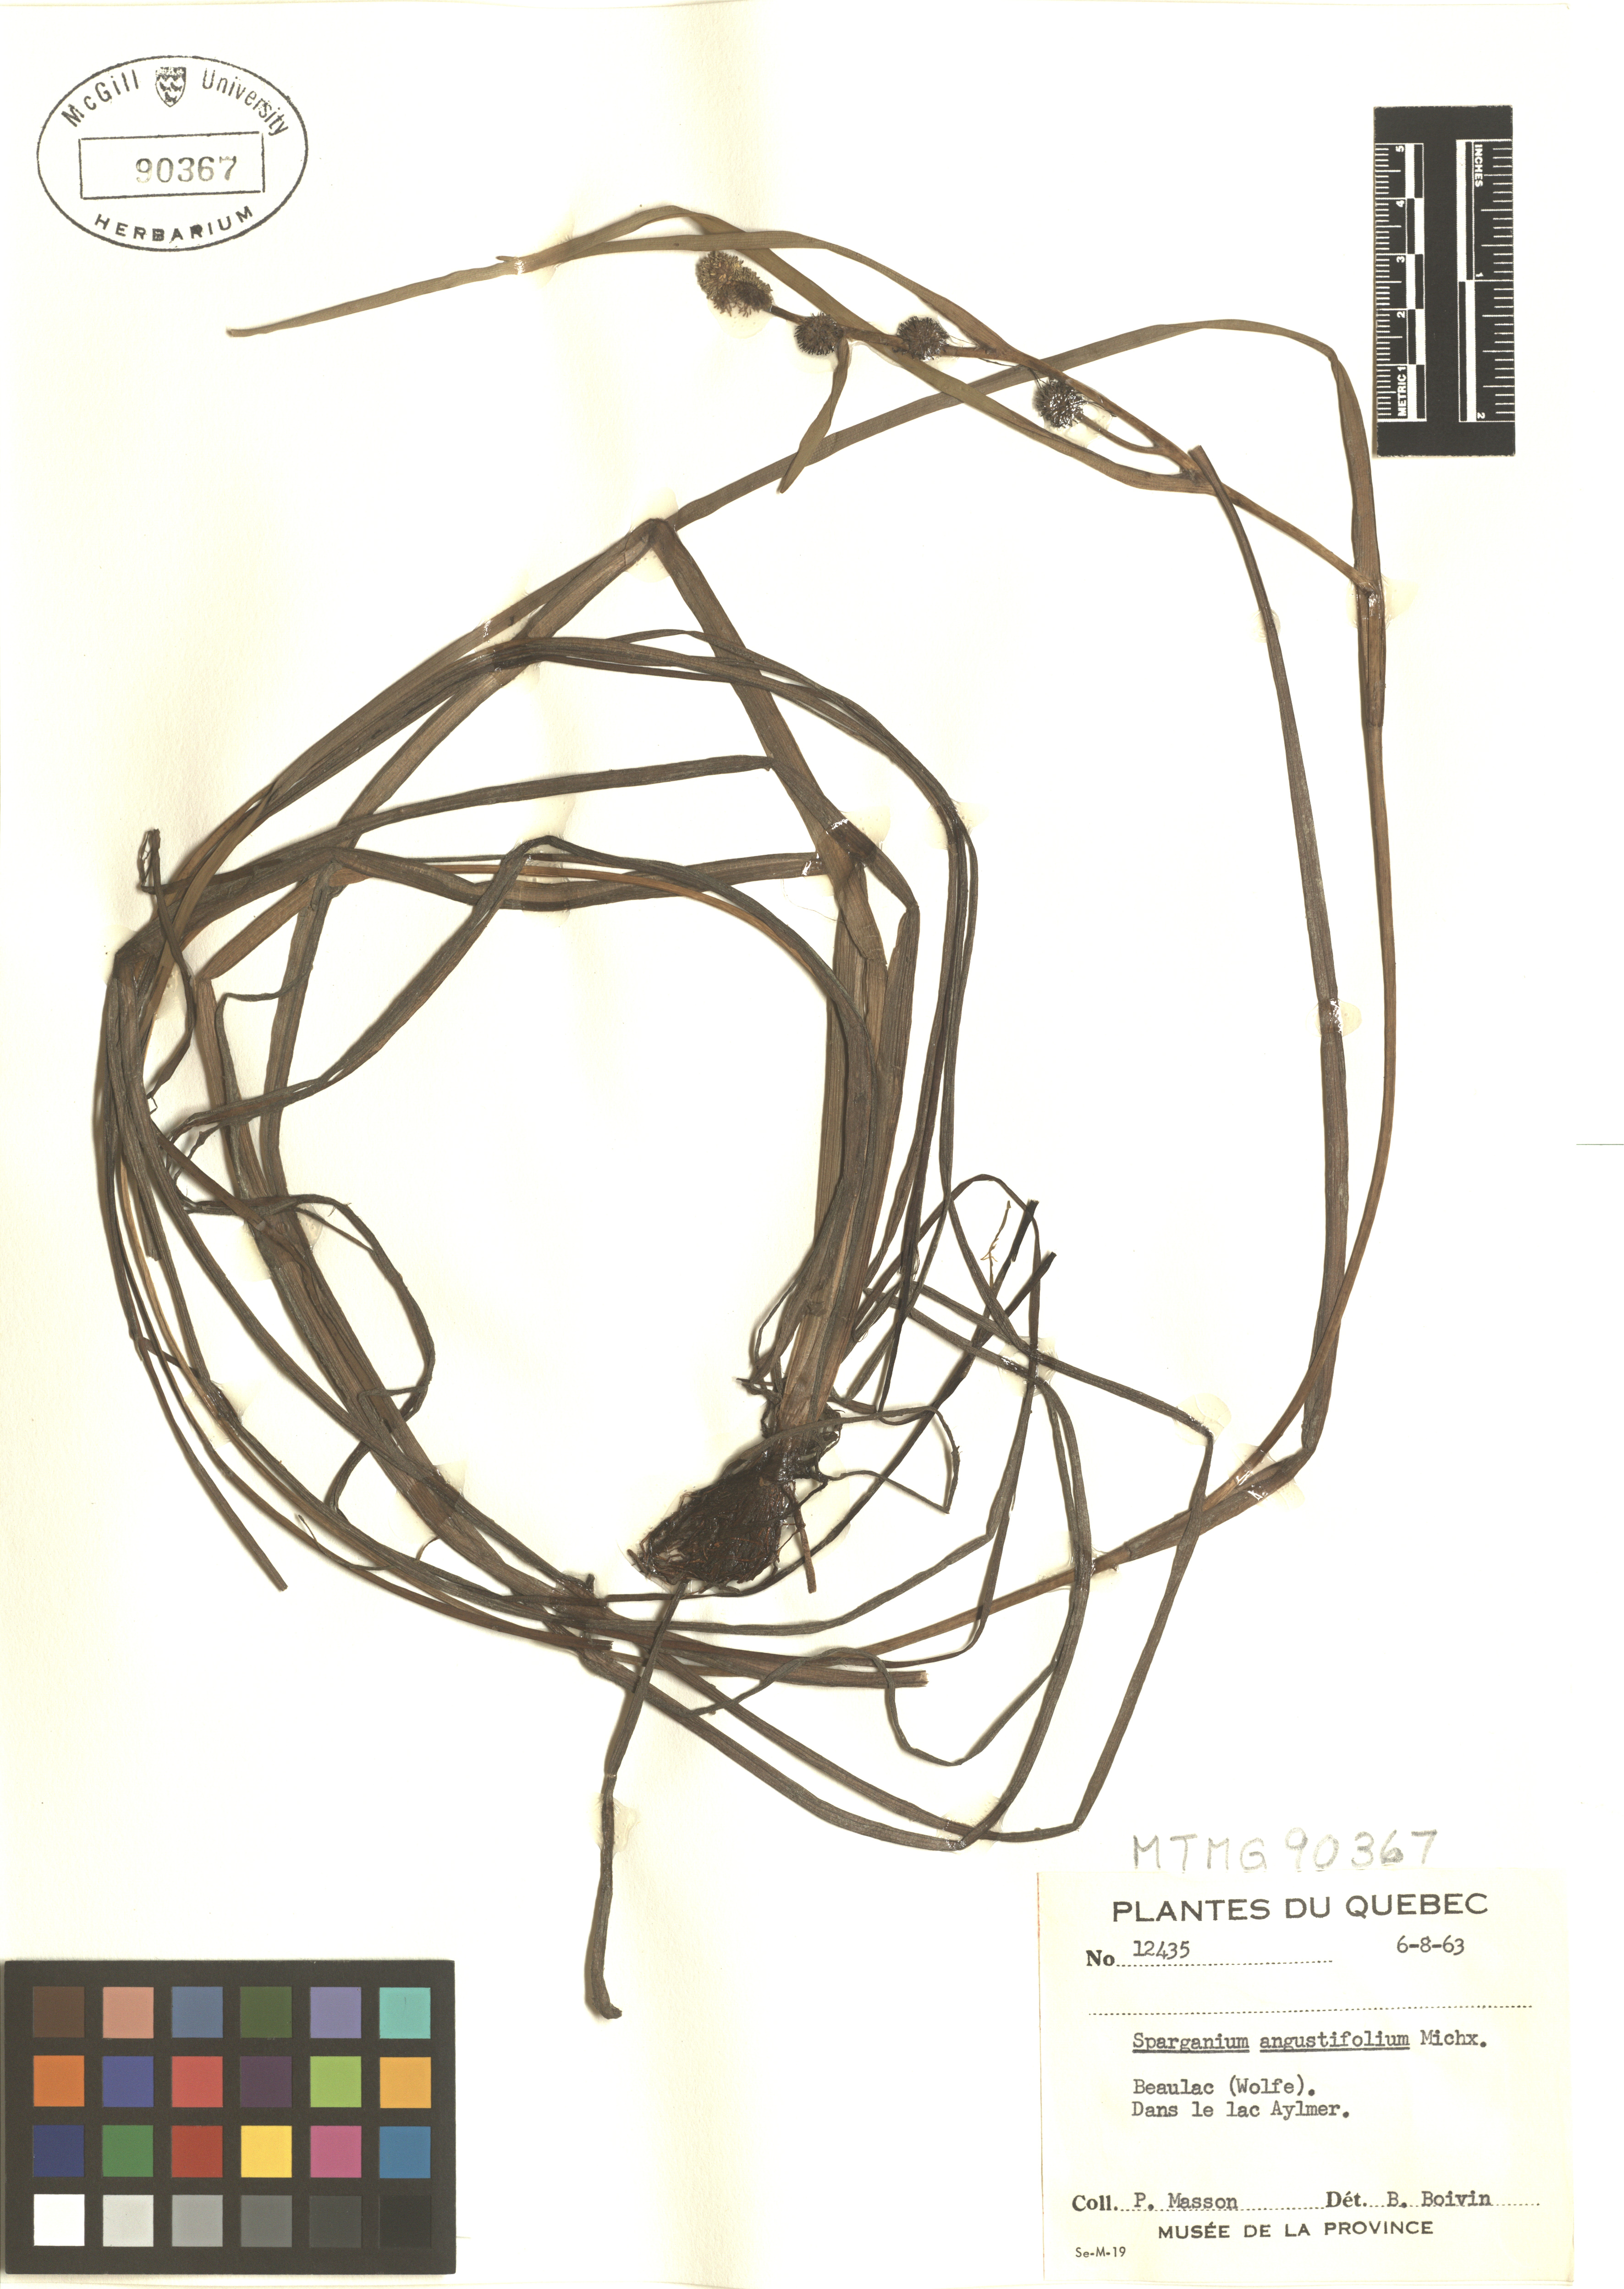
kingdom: Plantae
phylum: Tracheophyta
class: Liliopsida
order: Poales
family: Typhaceae
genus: Sparganium
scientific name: Sparganium angustifolium
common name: Floating bur-reed
